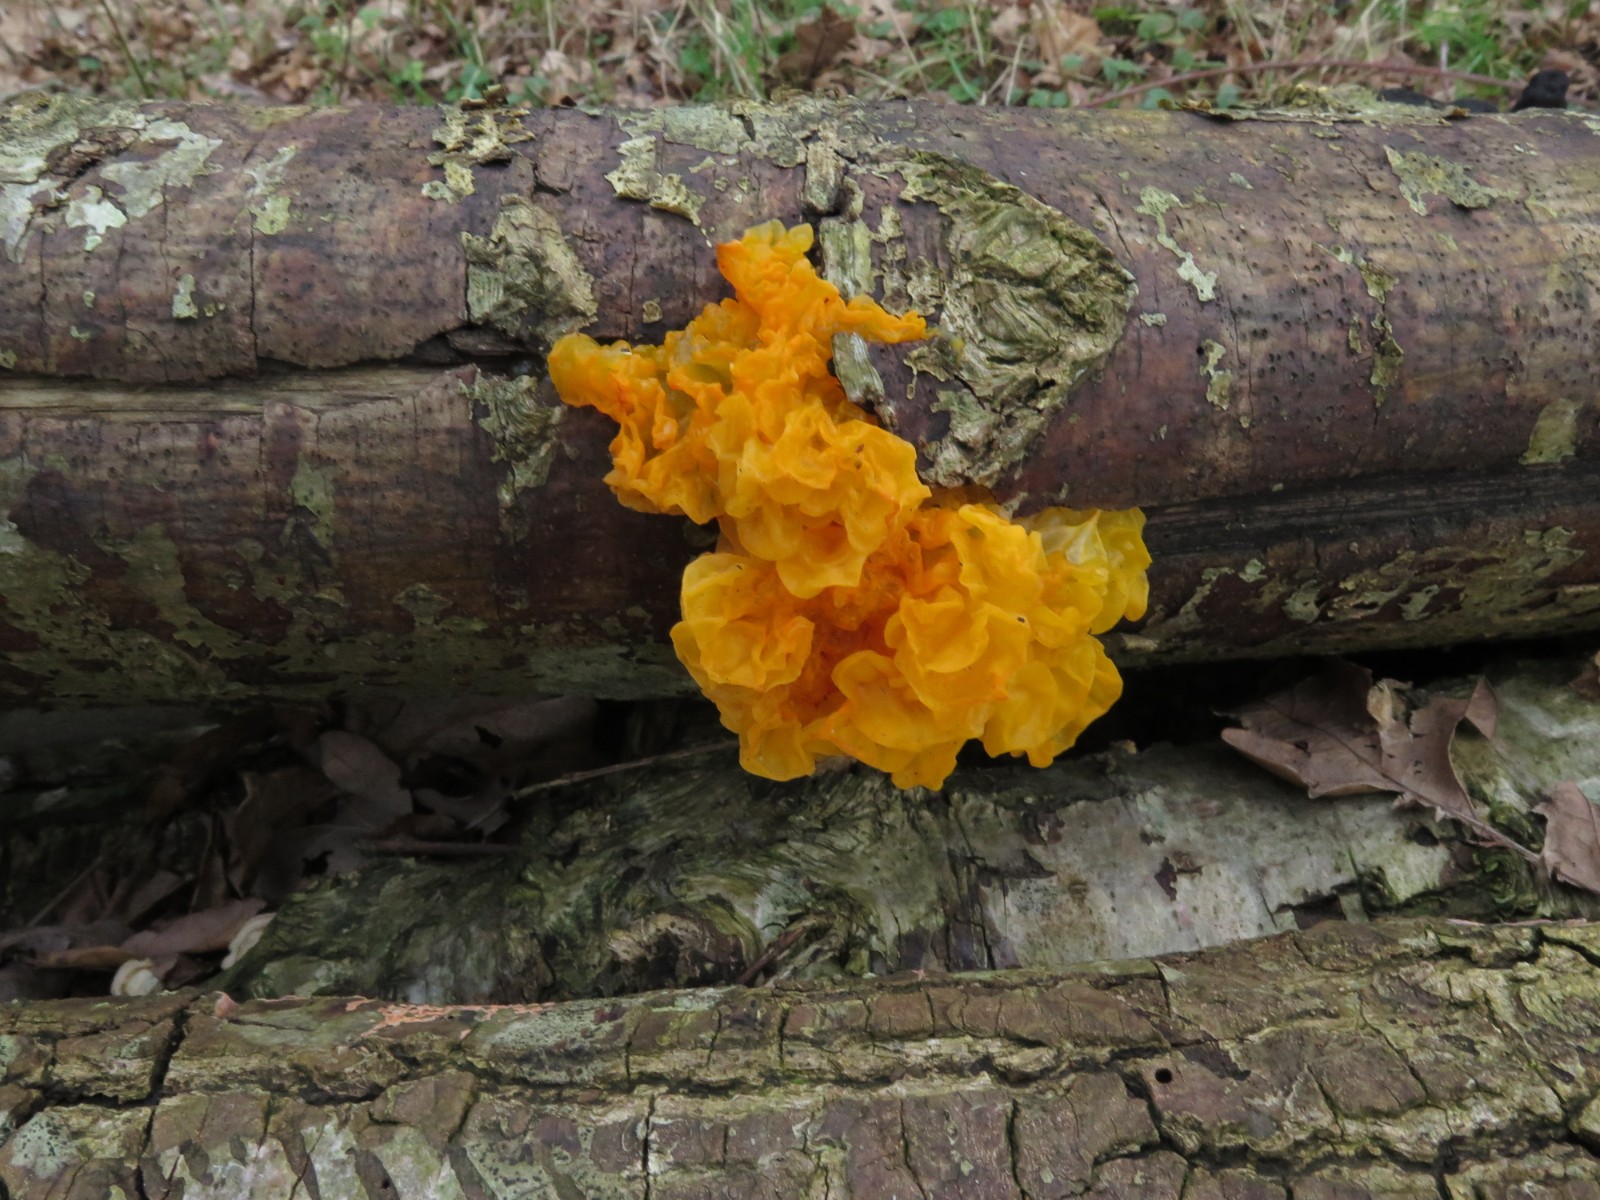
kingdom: Fungi
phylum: Basidiomycota
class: Tremellomycetes
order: Tremellales
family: Tremellaceae
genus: Tremella
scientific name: Tremella mesenterica
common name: gul bævresvamp
